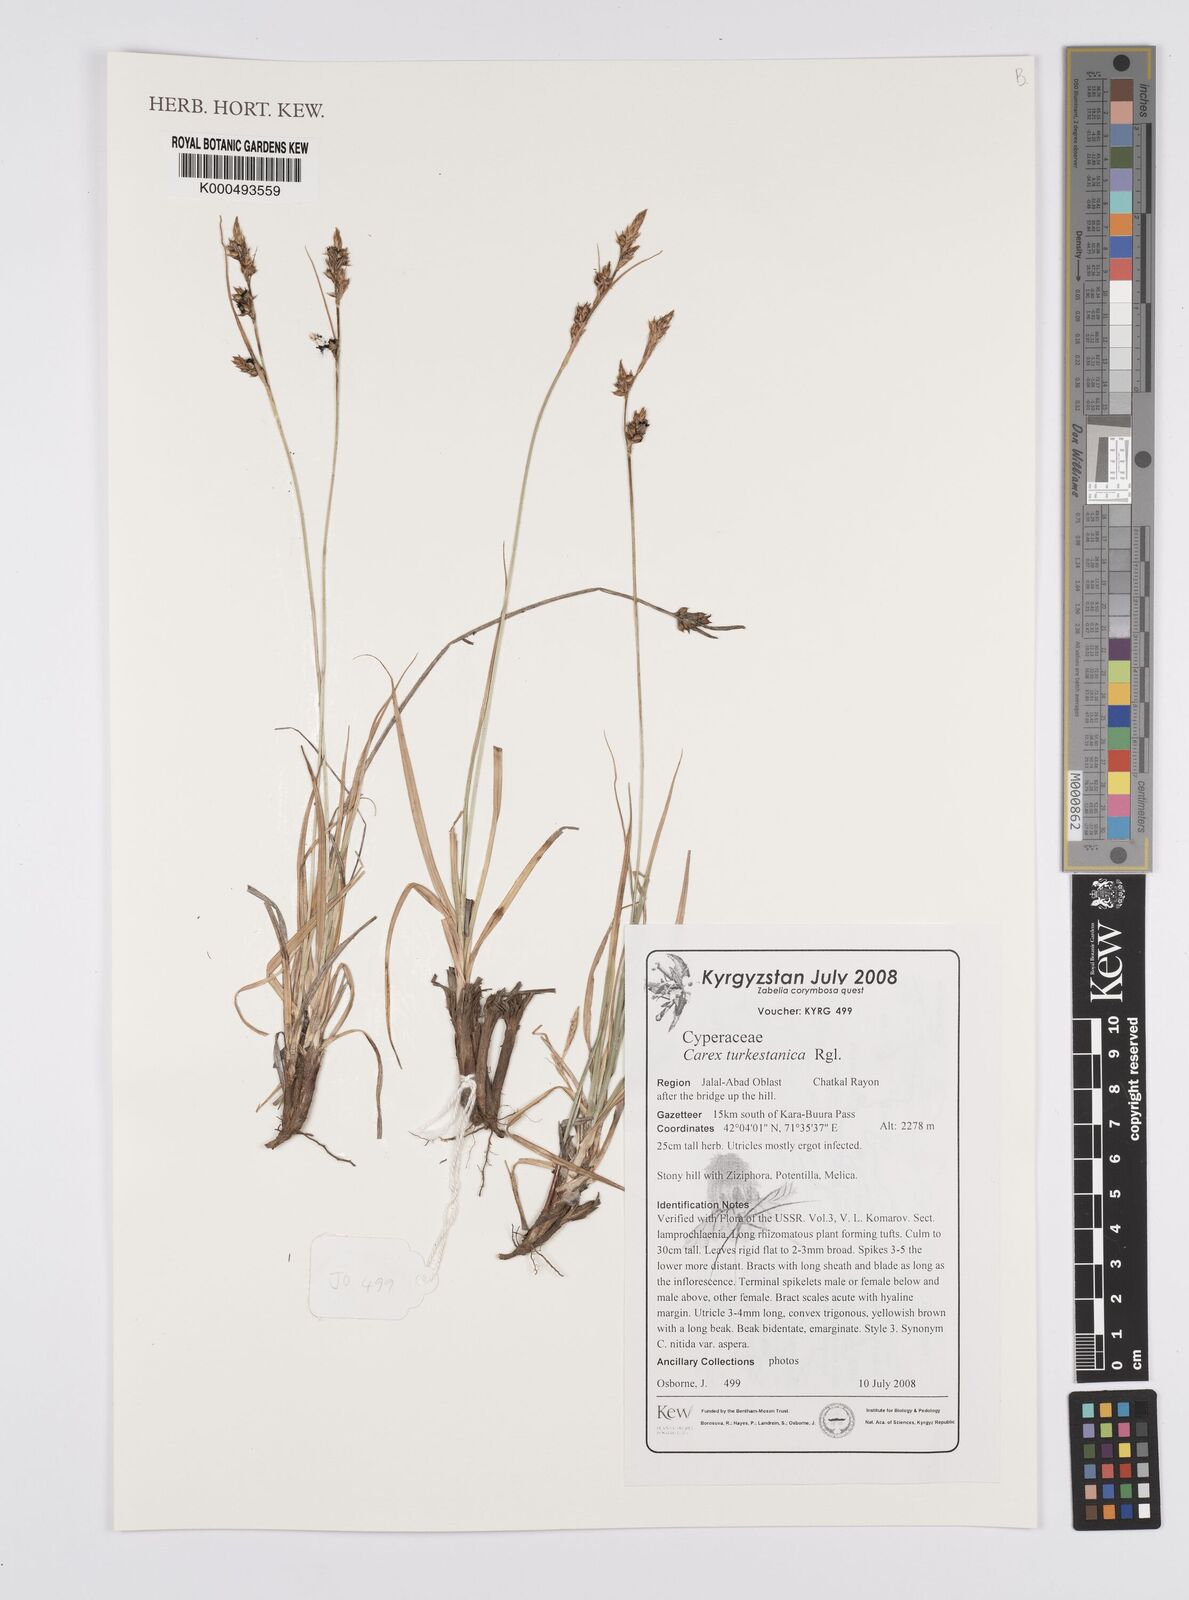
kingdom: Plantae
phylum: Tracheophyta
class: Liliopsida
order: Poales
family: Cyperaceae
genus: Carex
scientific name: Carex liparocarpos
